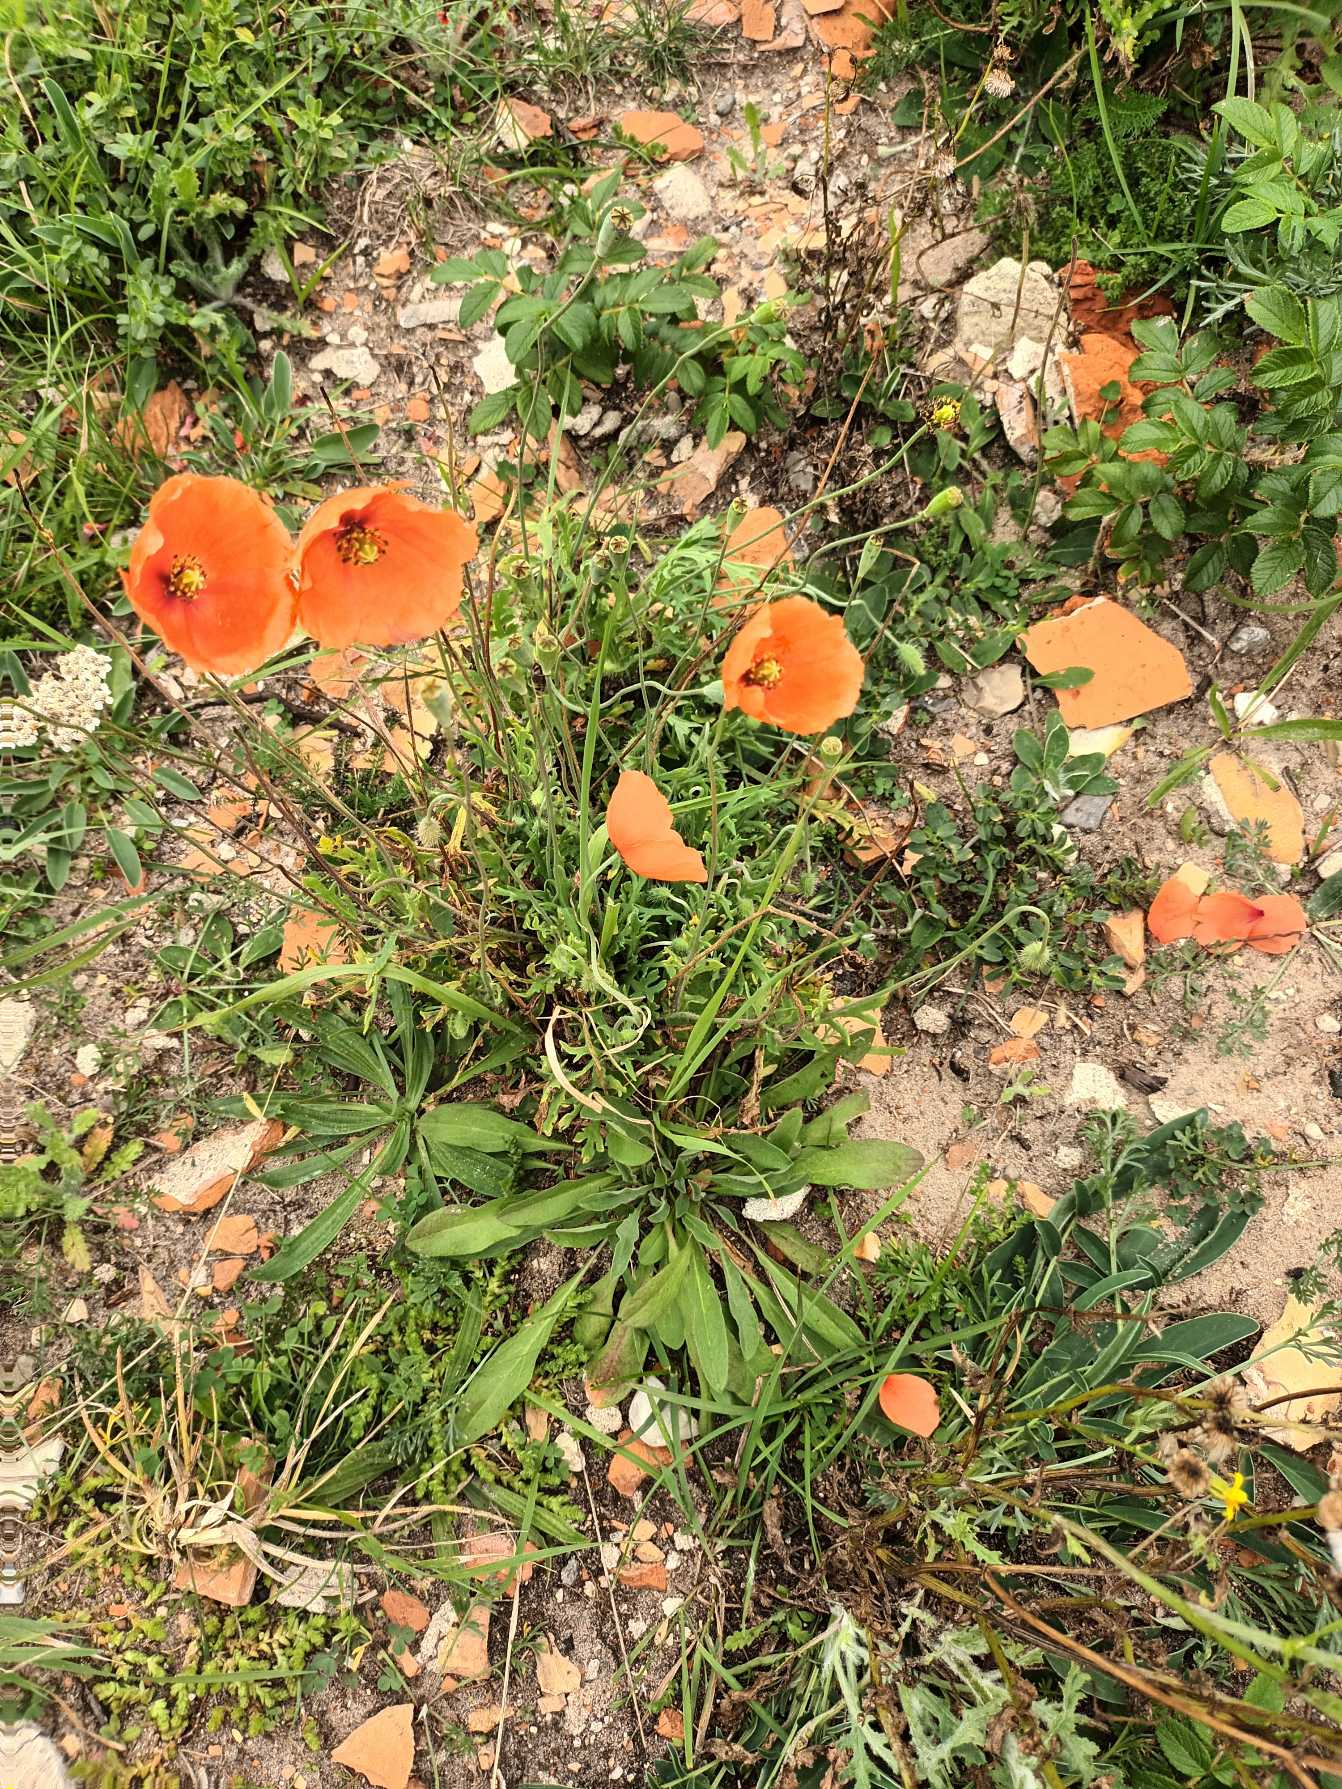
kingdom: Plantae
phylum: Tracheophyta
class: Magnoliopsida
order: Ranunculales
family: Papaveraceae
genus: Papaver
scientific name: Papaver dubium
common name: Gærde-valmue
